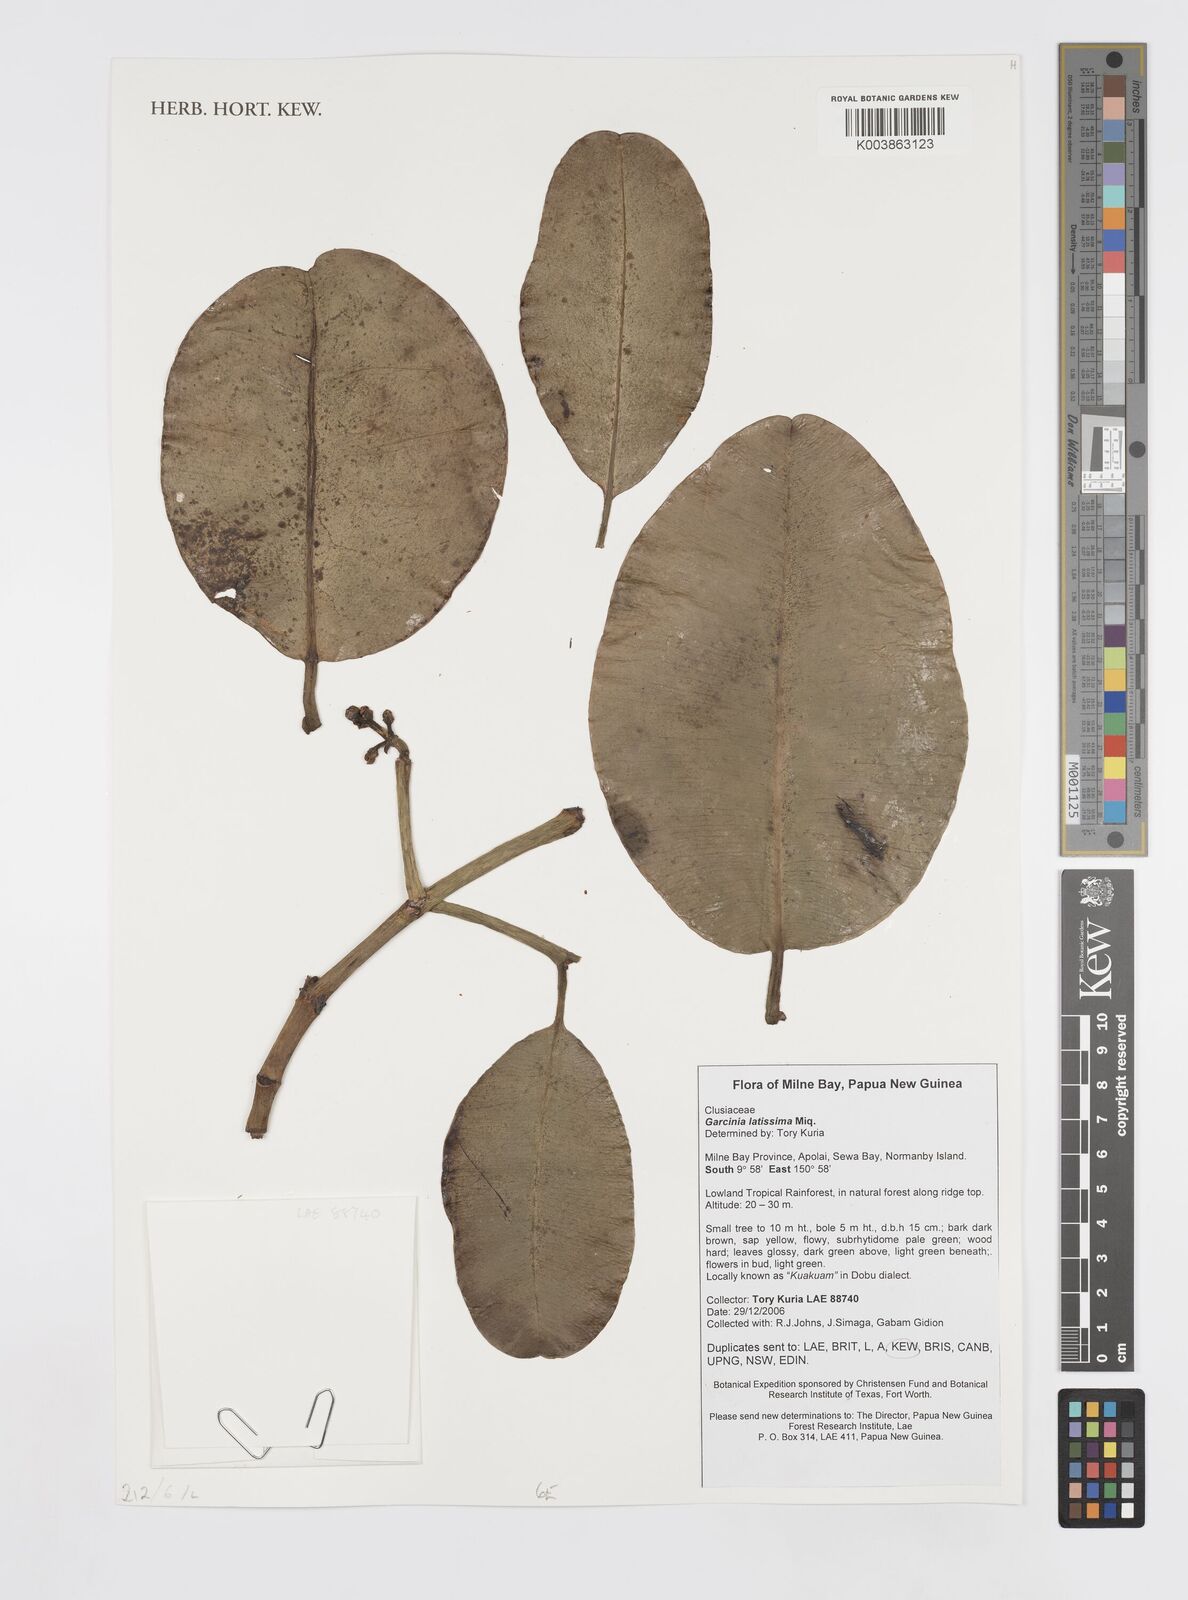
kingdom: Plantae
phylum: Tracheophyta
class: Magnoliopsida
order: Malpighiales
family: Clusiaceae
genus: Garcinia
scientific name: Garcinia latissima
